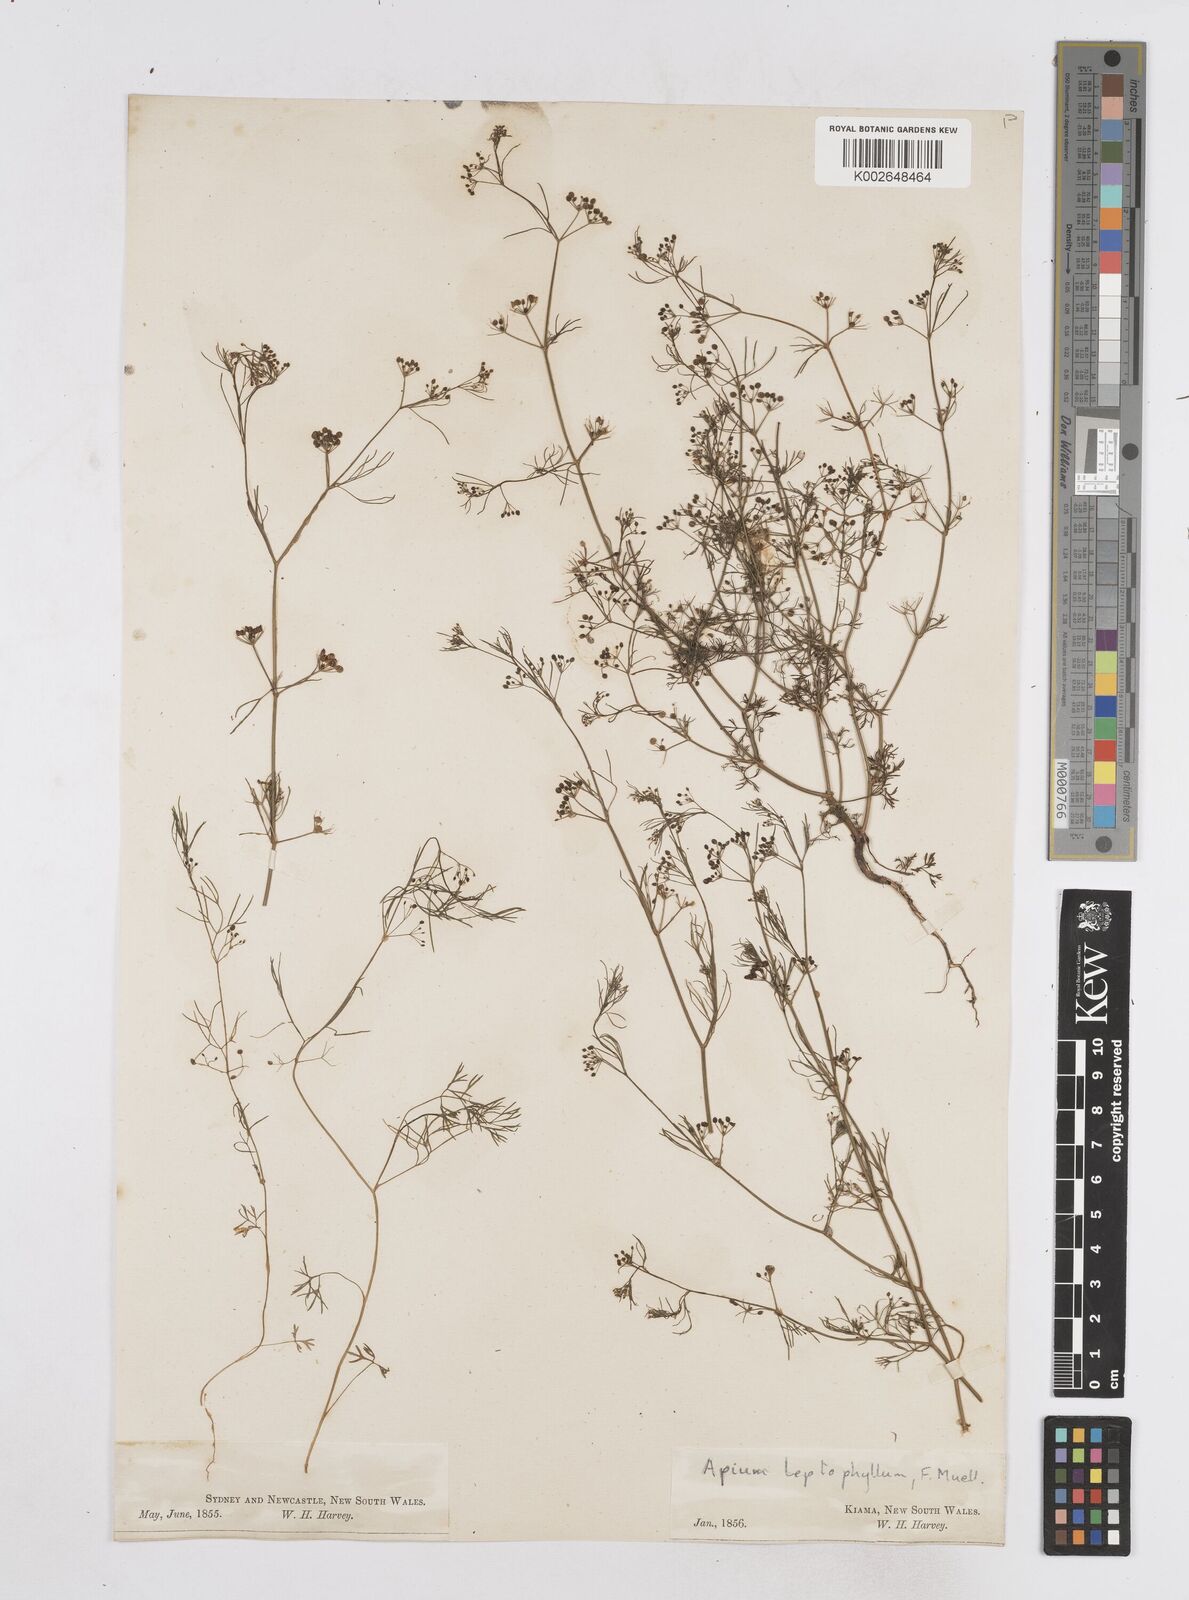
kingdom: Plantae
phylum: Tracheophyta
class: Magnoliopsida
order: Apiales
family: Apiaceae
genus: Cyclospermum
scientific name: Cyclospermum leptophyllum
